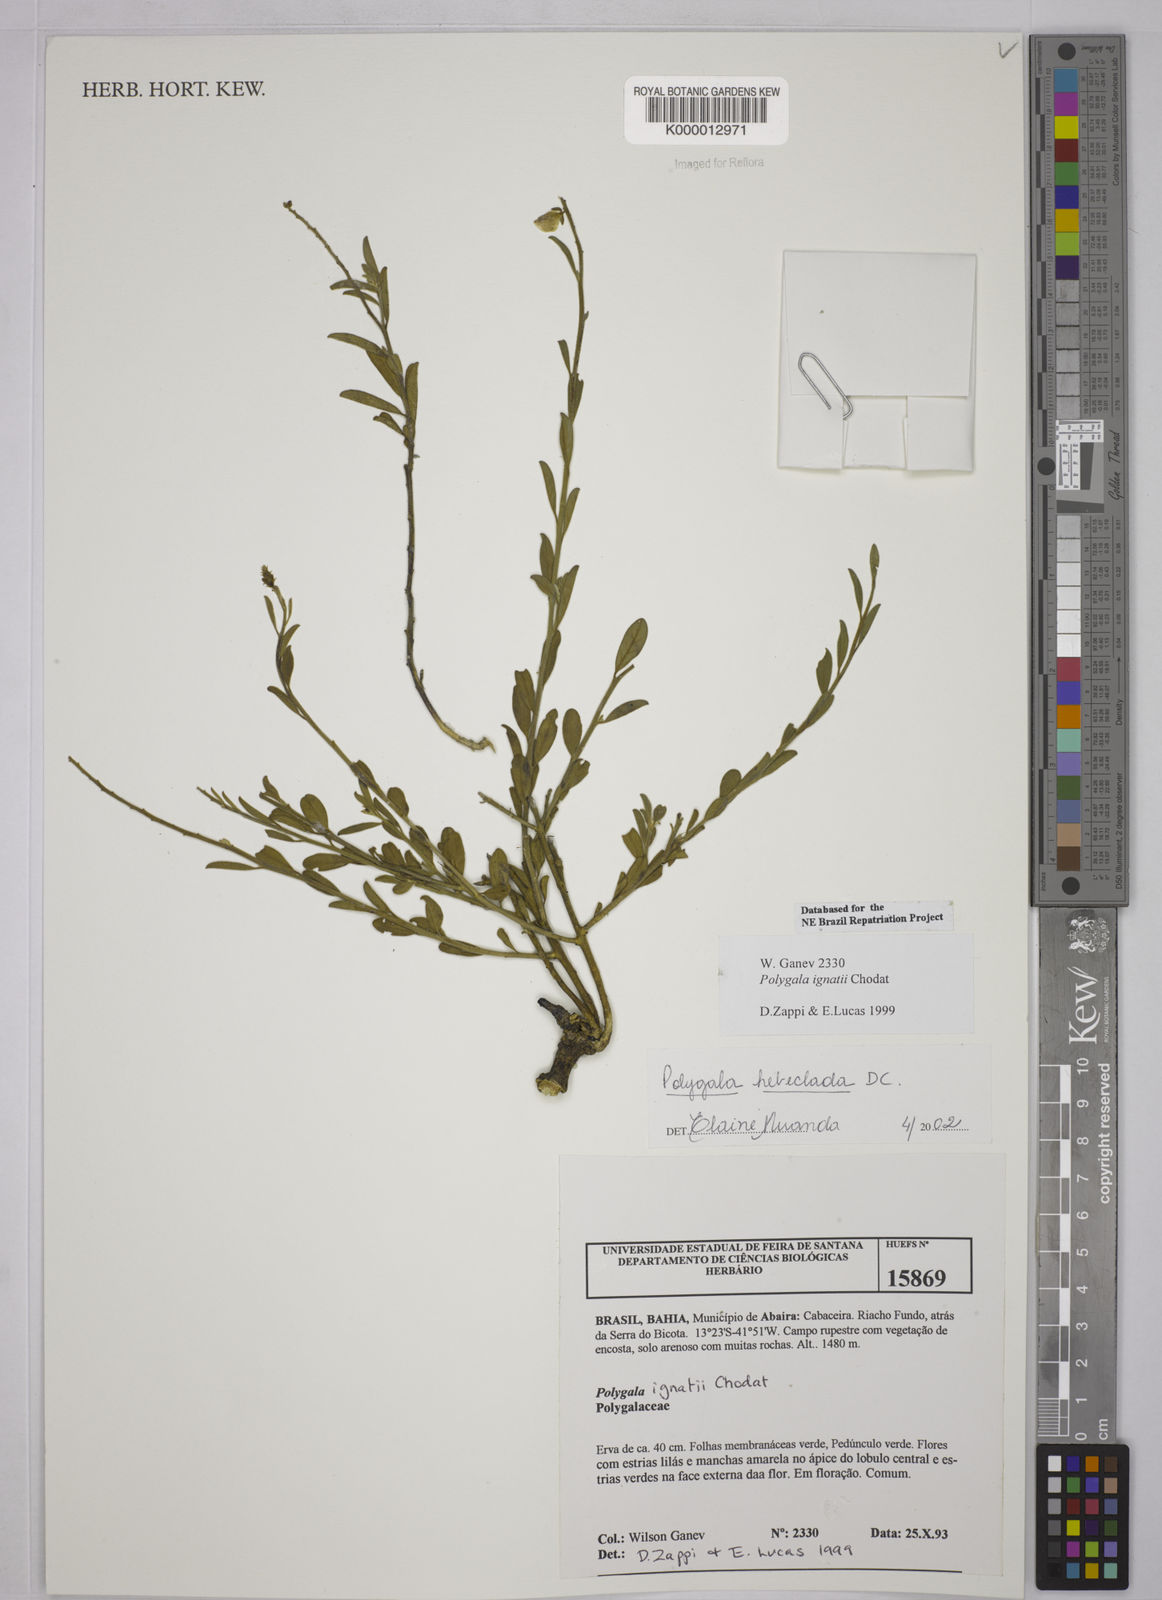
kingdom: Plantae
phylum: Tracheophyta
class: Magnoliopsida
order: Fabales
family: Polygalaceae
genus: Asemeia
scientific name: Asemeia hebeclada
